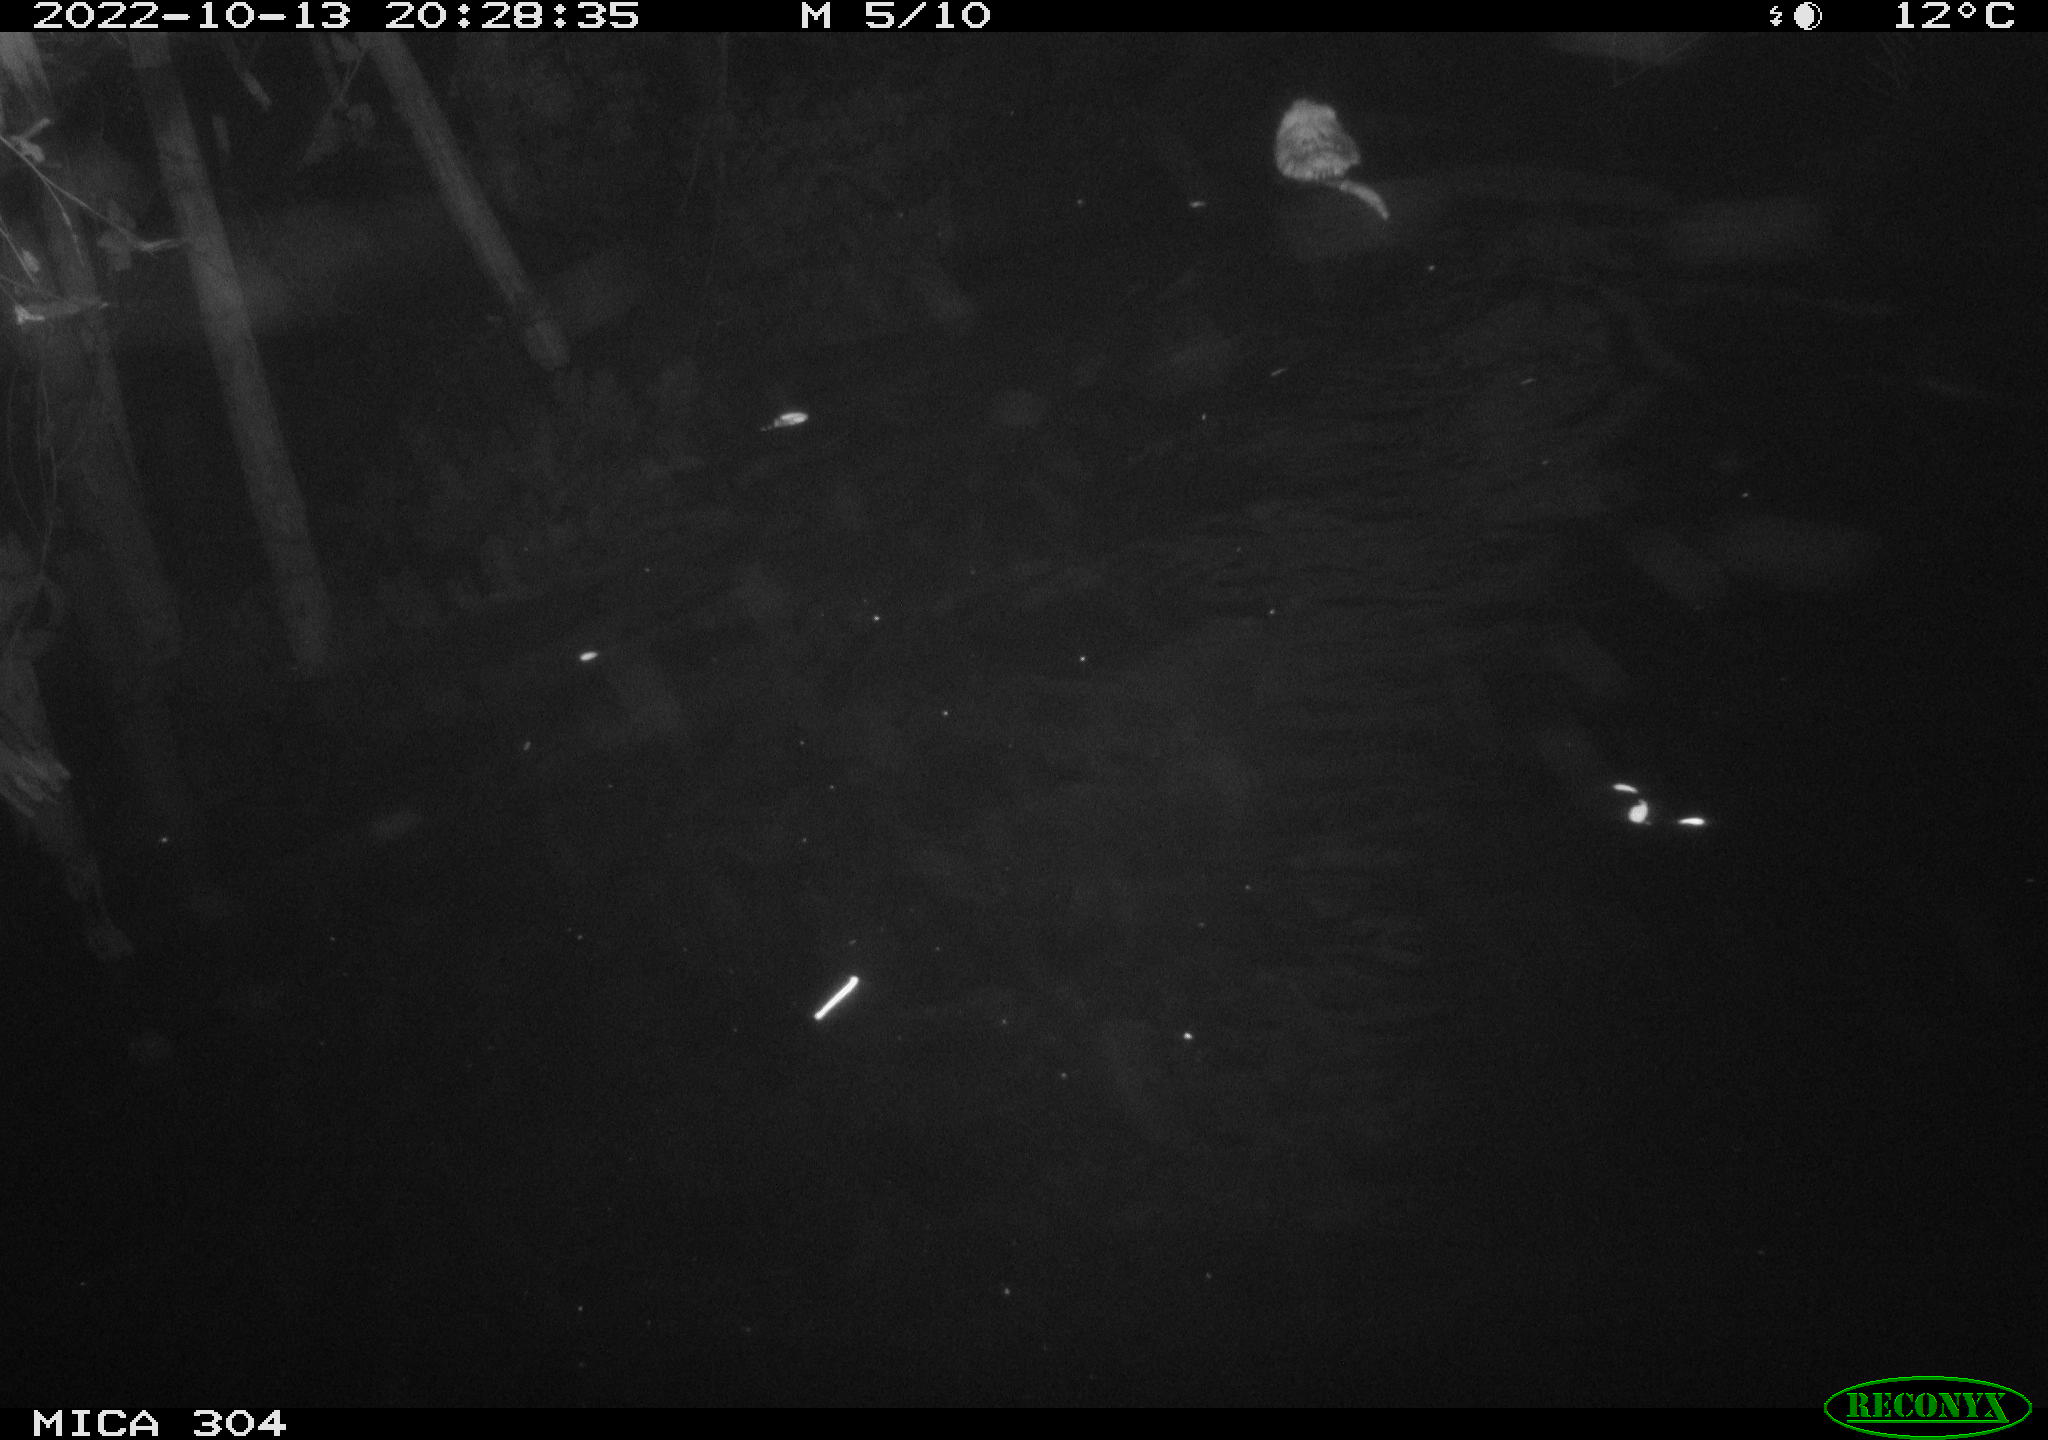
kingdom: Animalia
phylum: Chordata
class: Mammalia
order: Rodentia
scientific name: Rodentia
